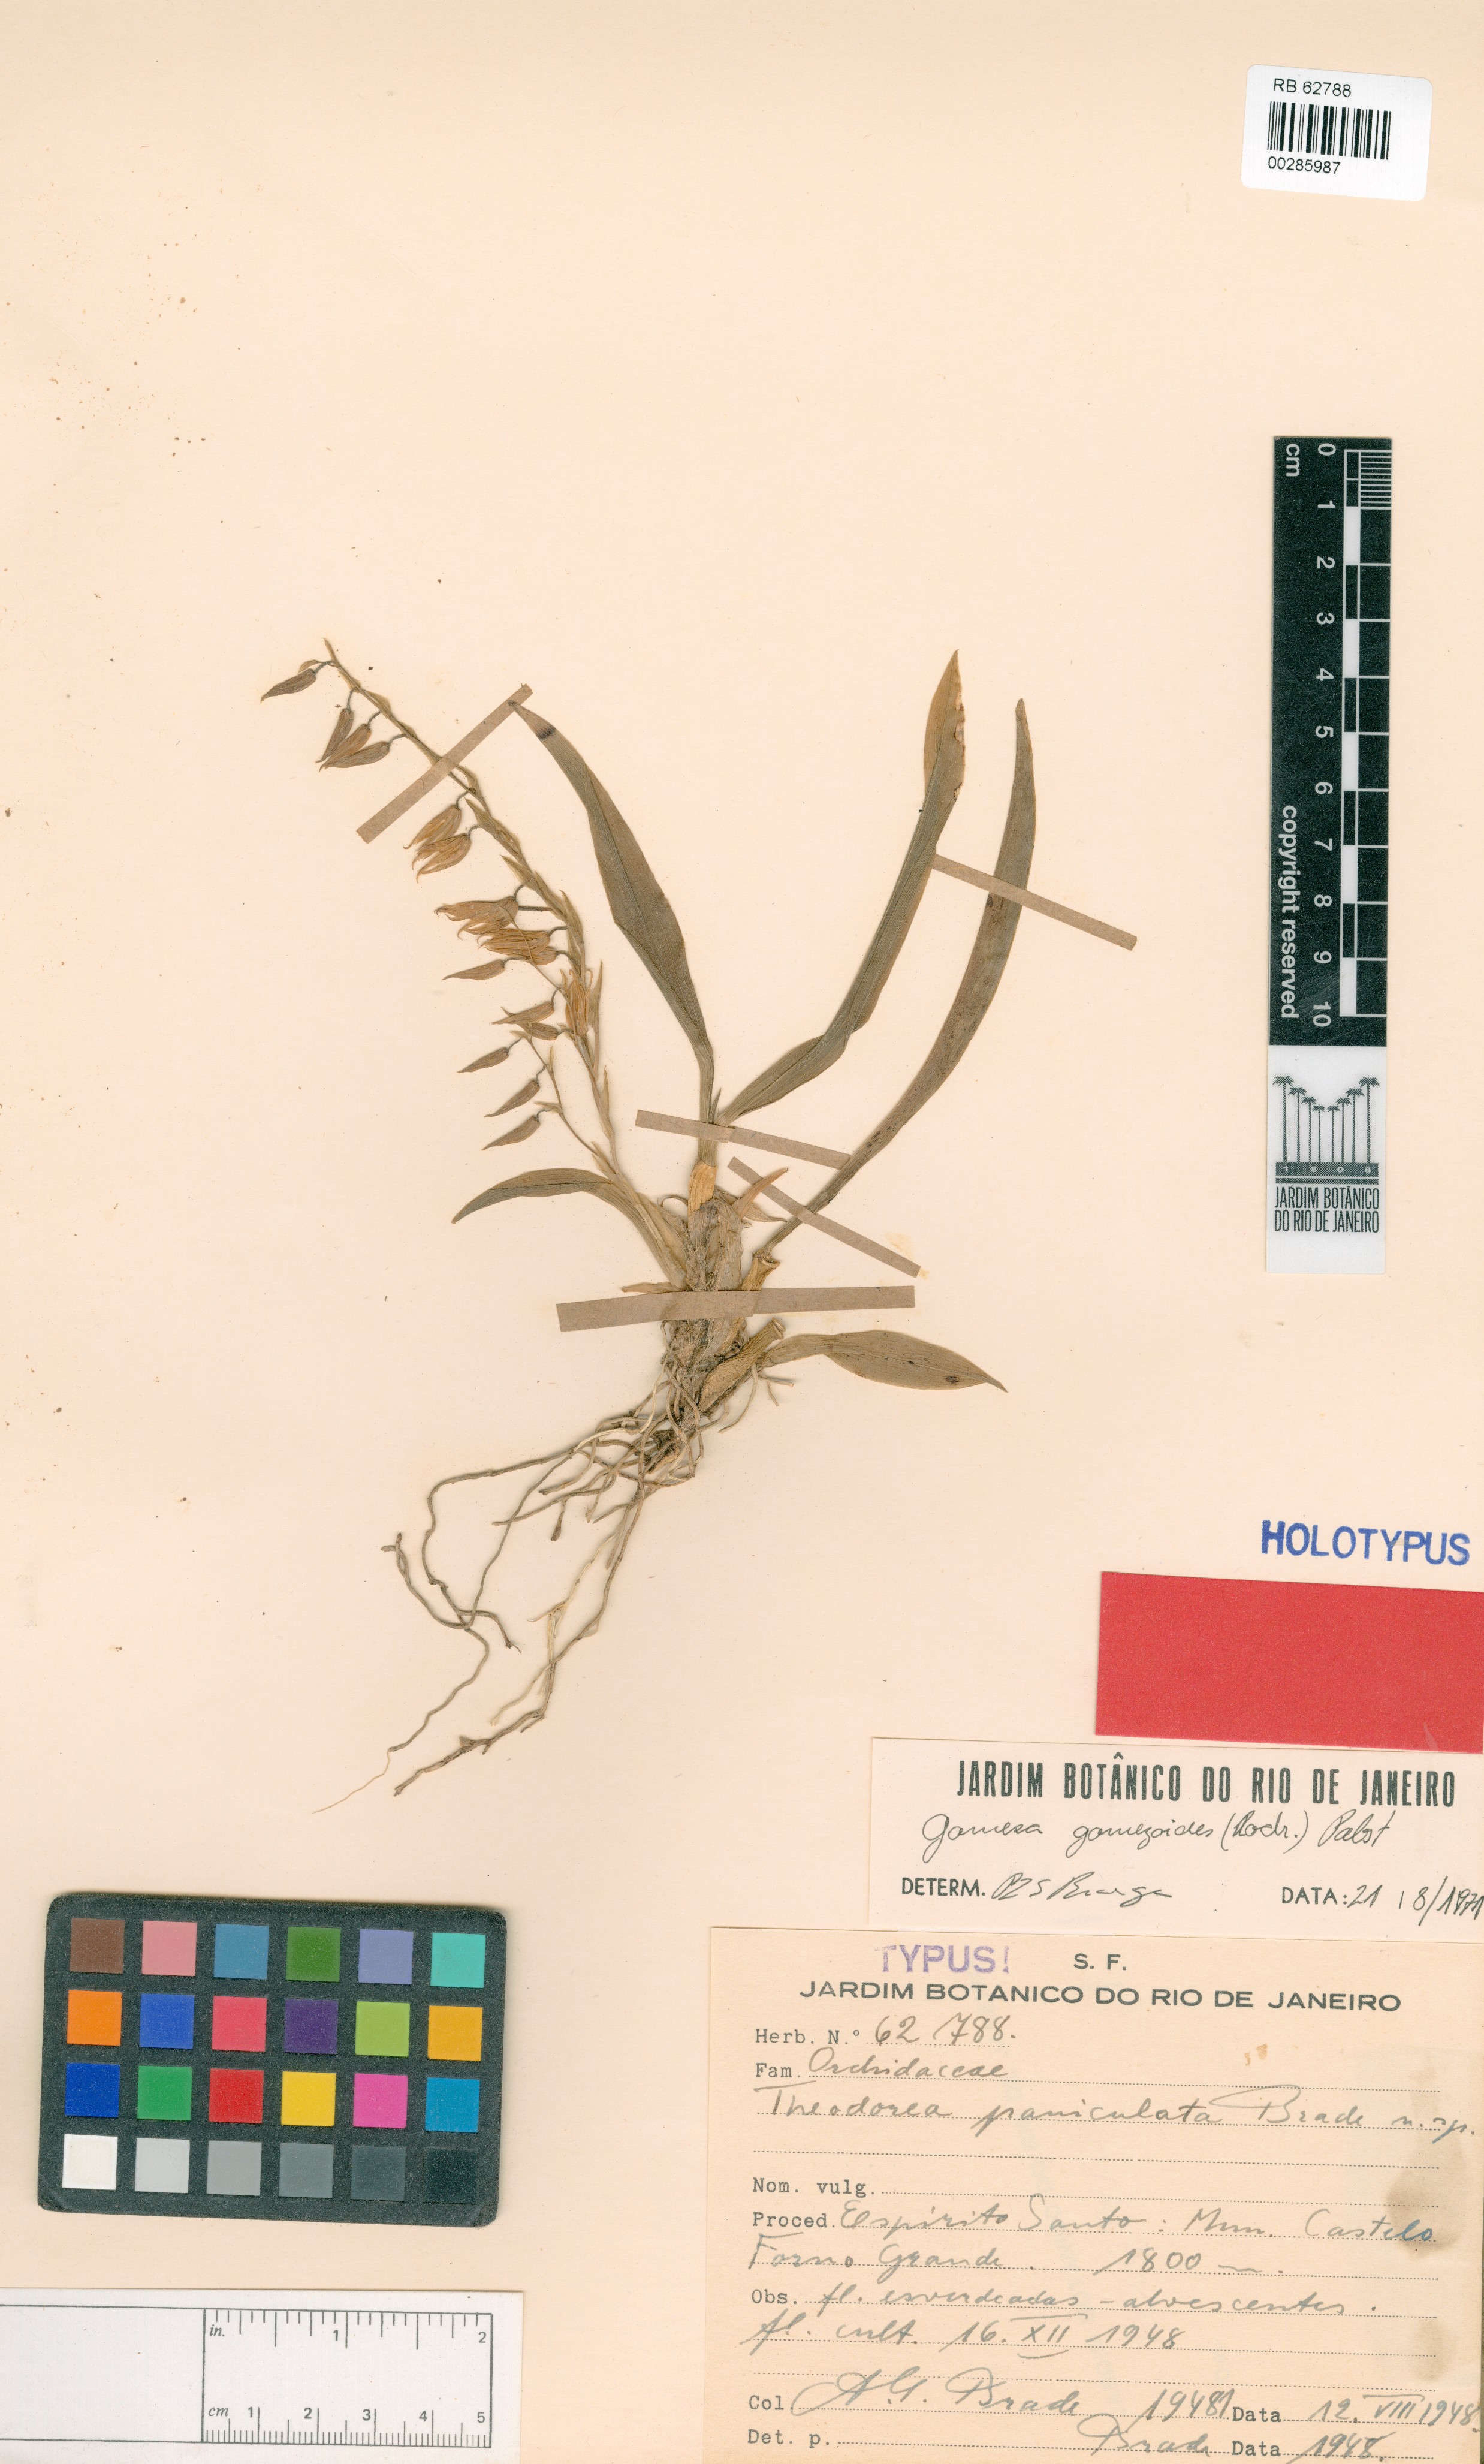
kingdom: Plantae
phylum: Tracheophyta
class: Liliopsida
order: Asparagales
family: Orchidaceae
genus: Gomesa
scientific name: Gomesa gomezoides
